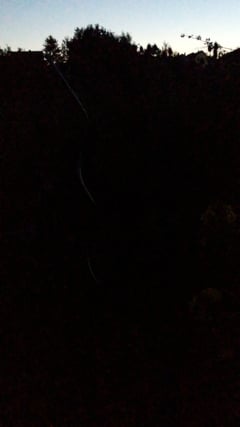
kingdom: Animalia
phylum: Arthropoda
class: Insecta
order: Orthoptera
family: Gryllidae
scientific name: Gryllidae
